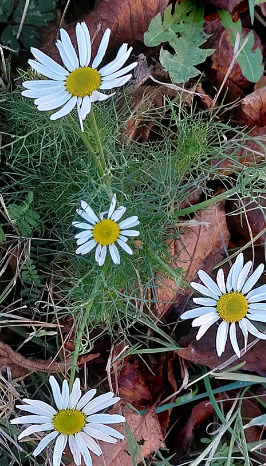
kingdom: Plantae
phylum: Tracheophyta
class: Magnoliopsida
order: Asterales
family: Asteraceae
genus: Tripleurospermum
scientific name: Tripleurospermum inodorum
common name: Lugtløs kamille
